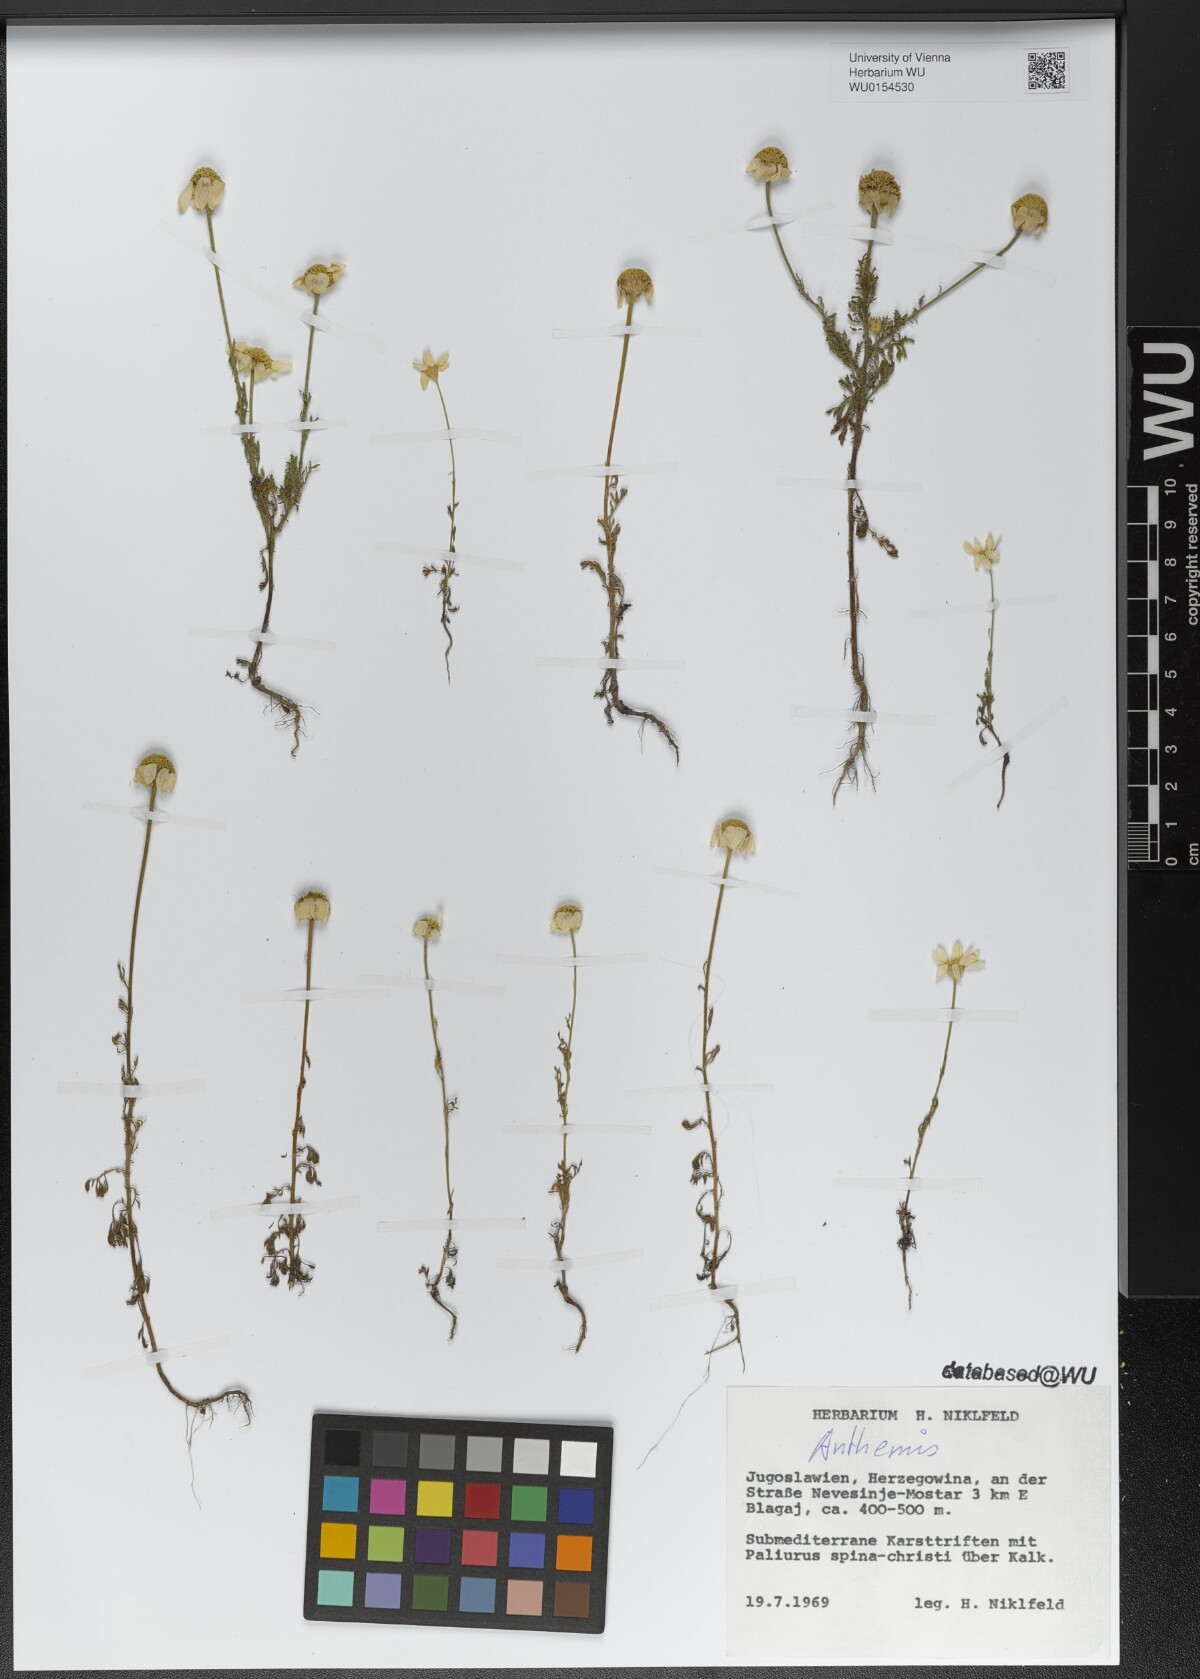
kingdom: Plantae
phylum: Tracheophyta
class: Magnoliopsida
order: Asterales
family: Asteraceae
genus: Anthemis
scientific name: Anthemis
